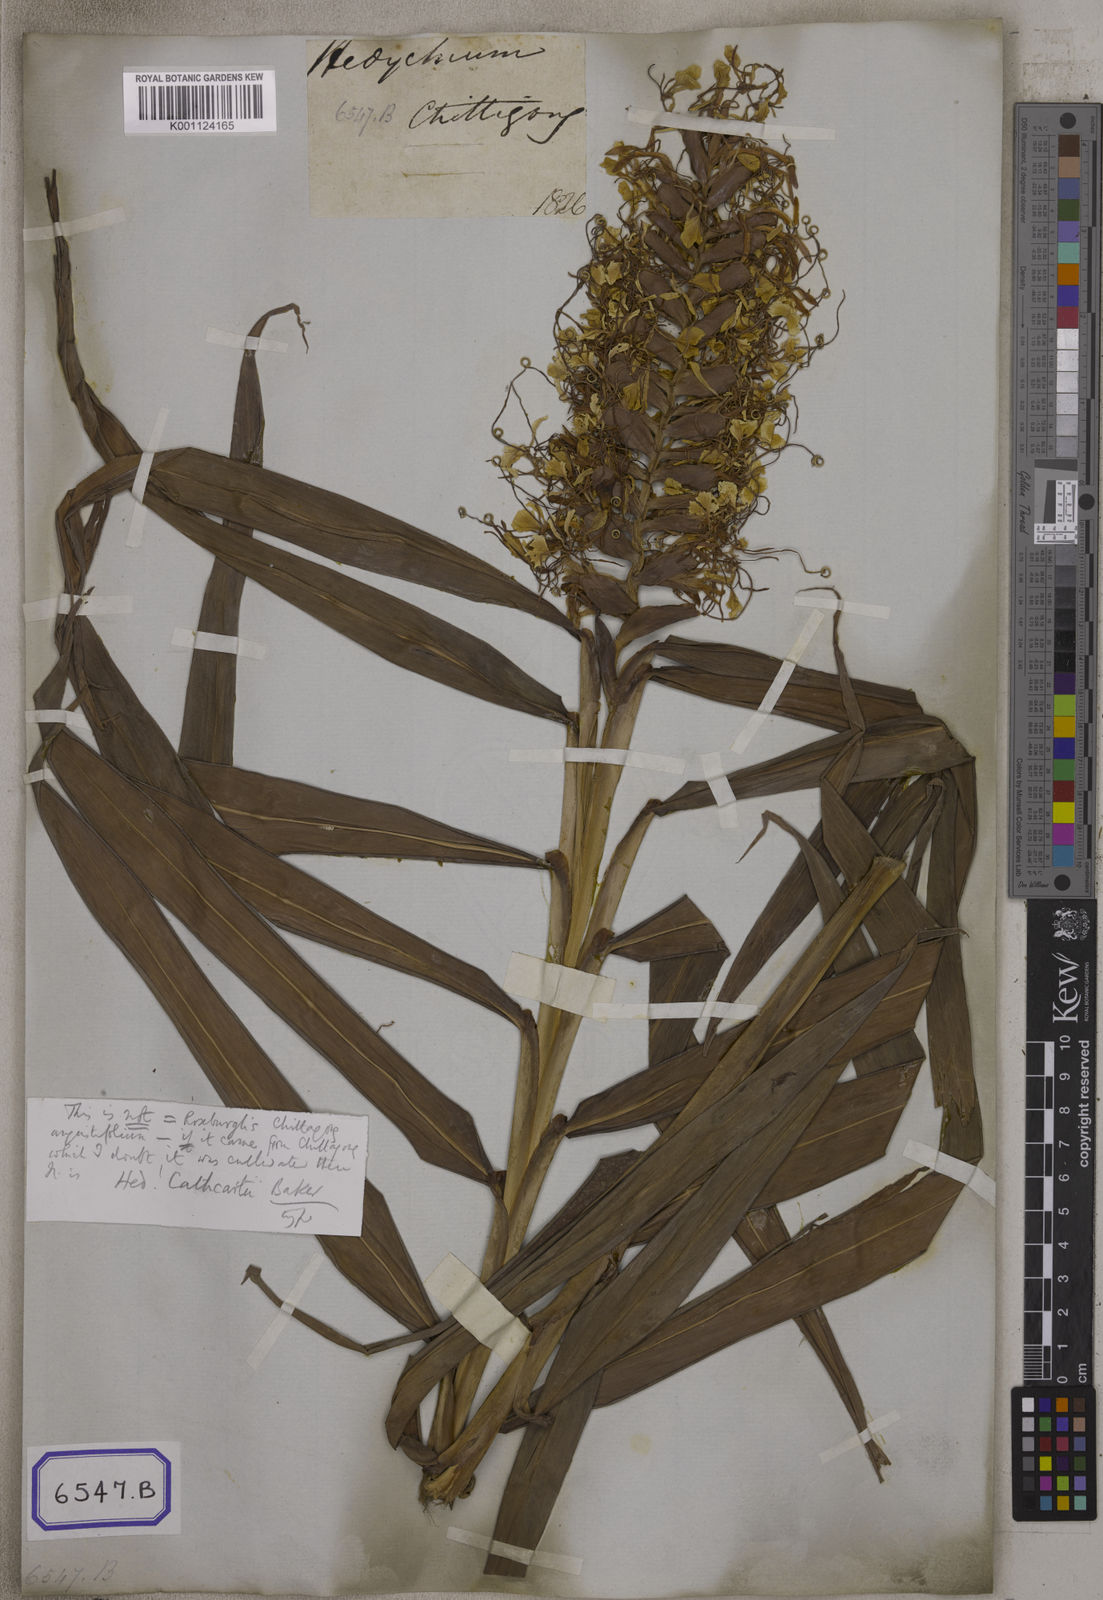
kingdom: Plantae
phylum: Tracheophyta
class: Liliopsida
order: Zingiberales
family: Zingiberaceae
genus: Hedychium
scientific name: Hedychium coccineum
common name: Red ginger-lily
